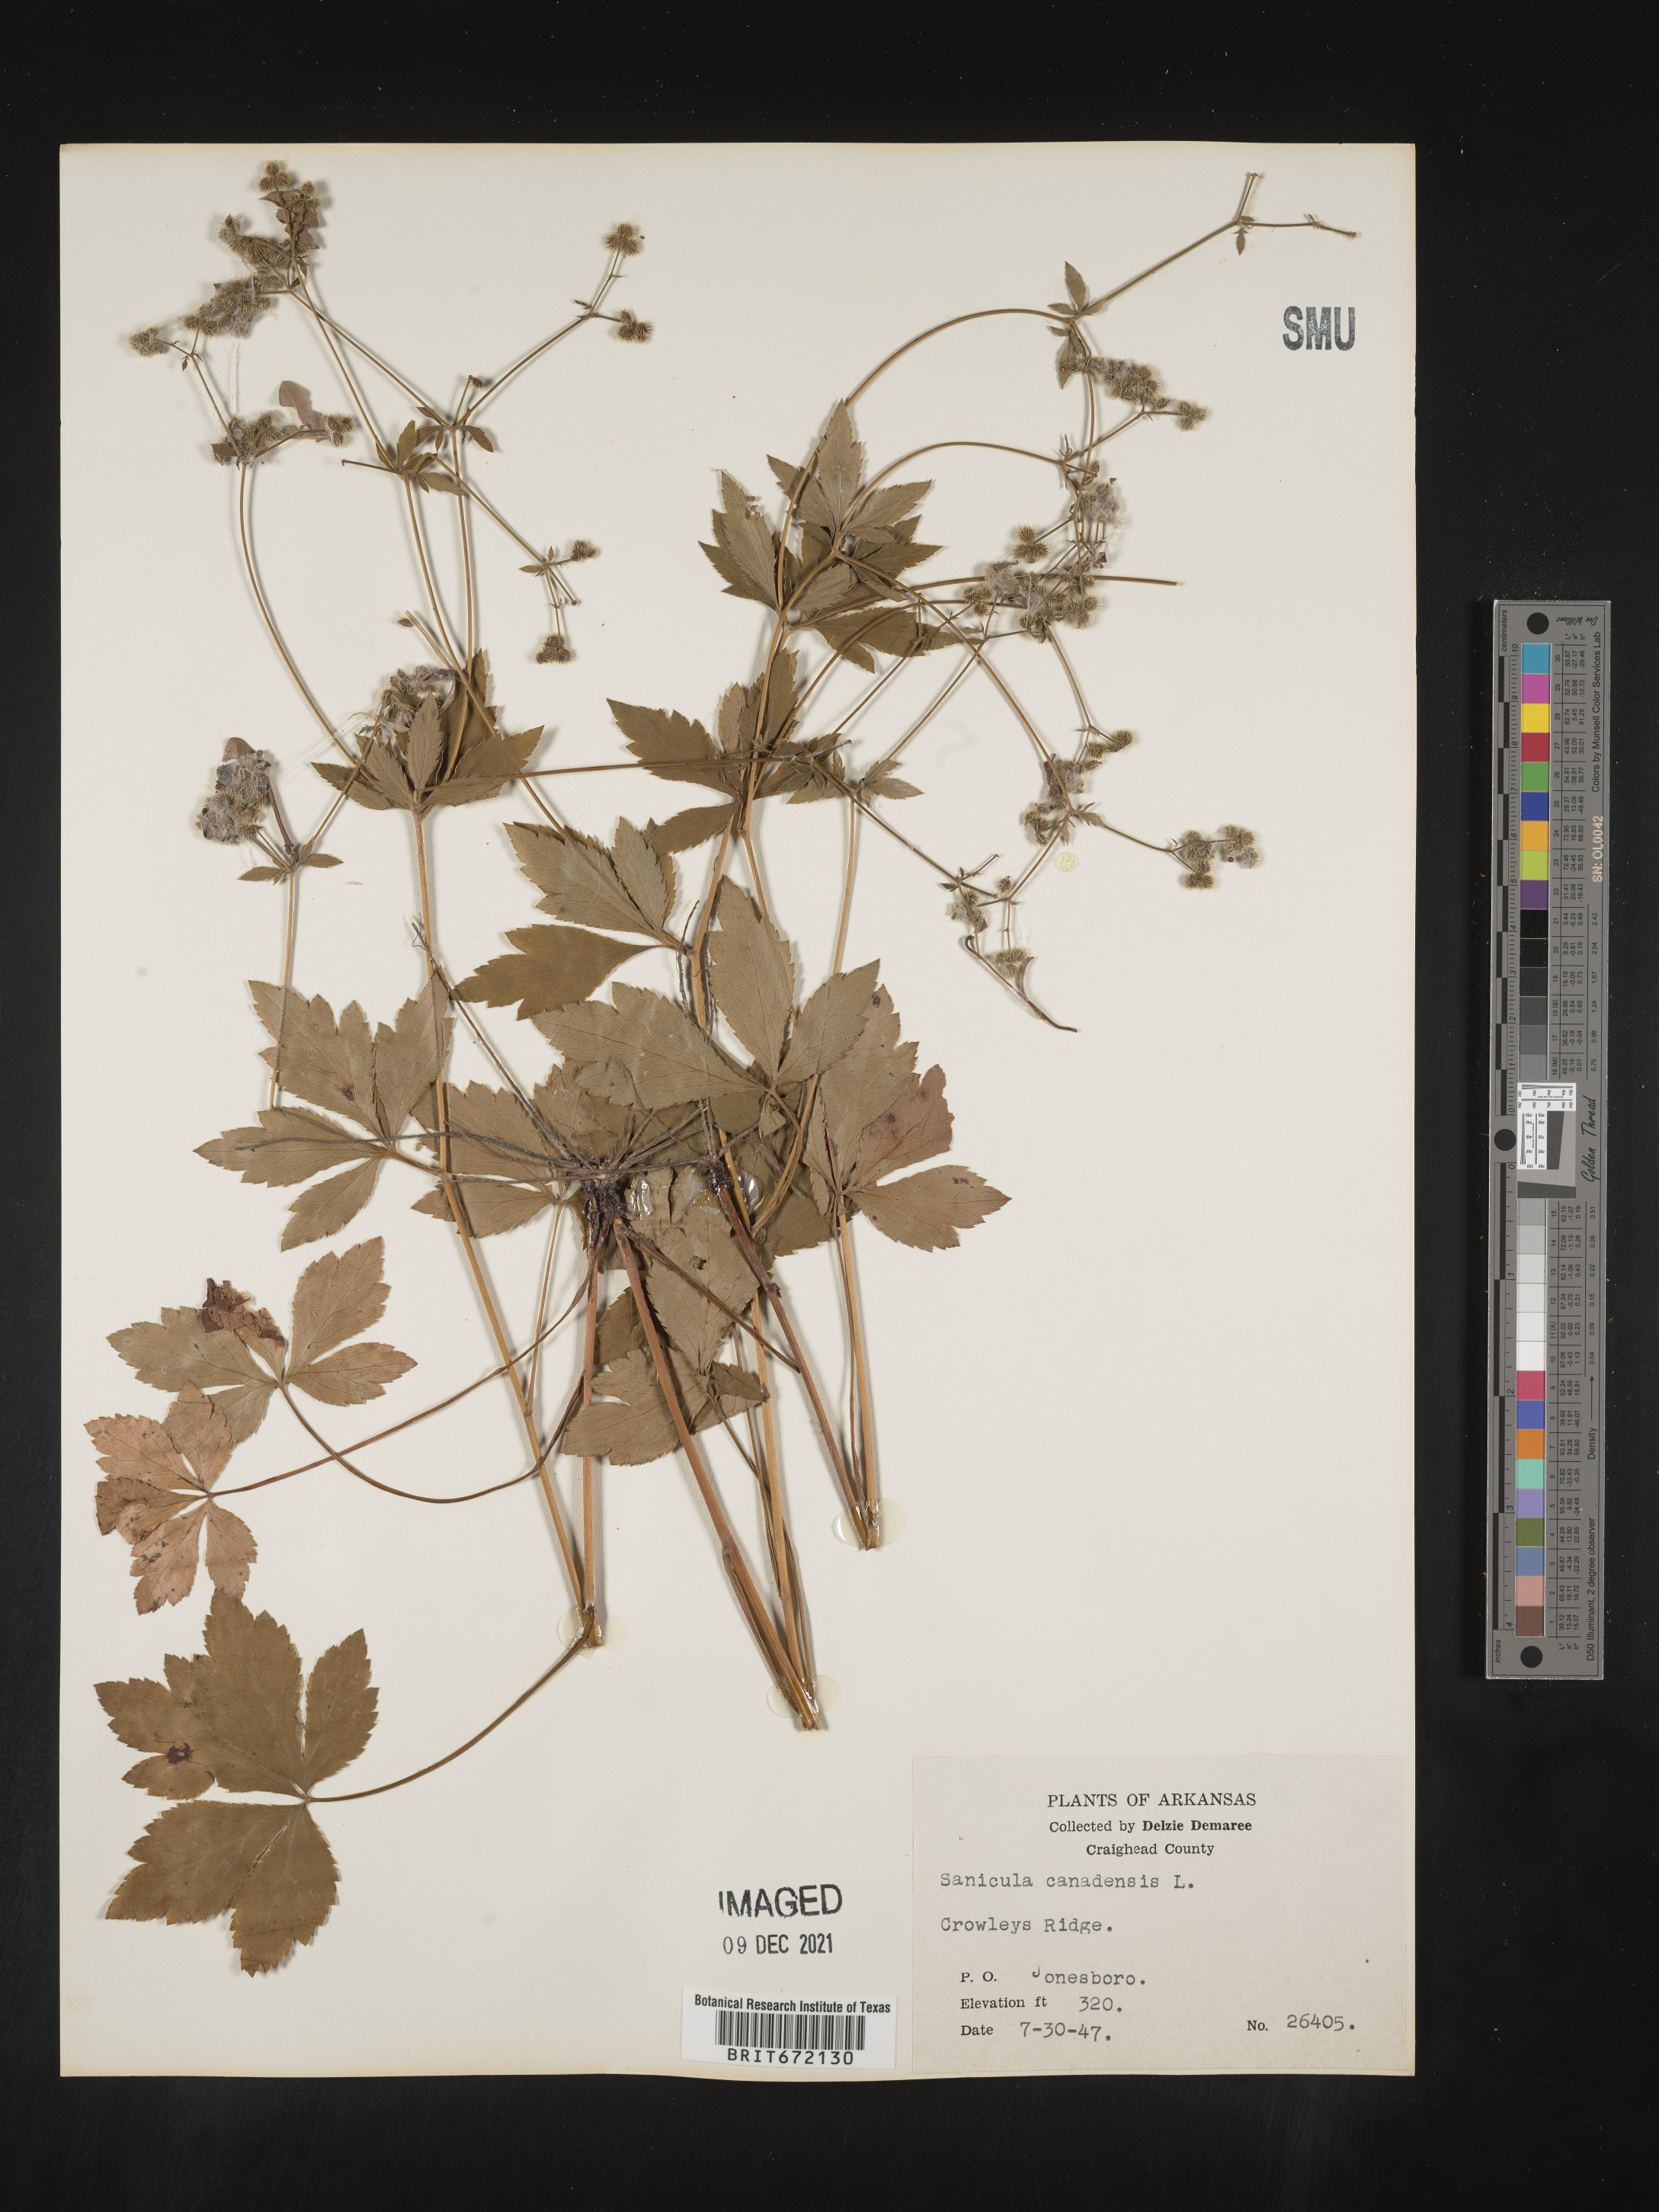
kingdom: Plantae
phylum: Tracheophyta
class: Magnoliopsida
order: Apiales
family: Apiaceae
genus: Sanicula
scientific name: Sanicula canadensis
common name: Canada sanicle
